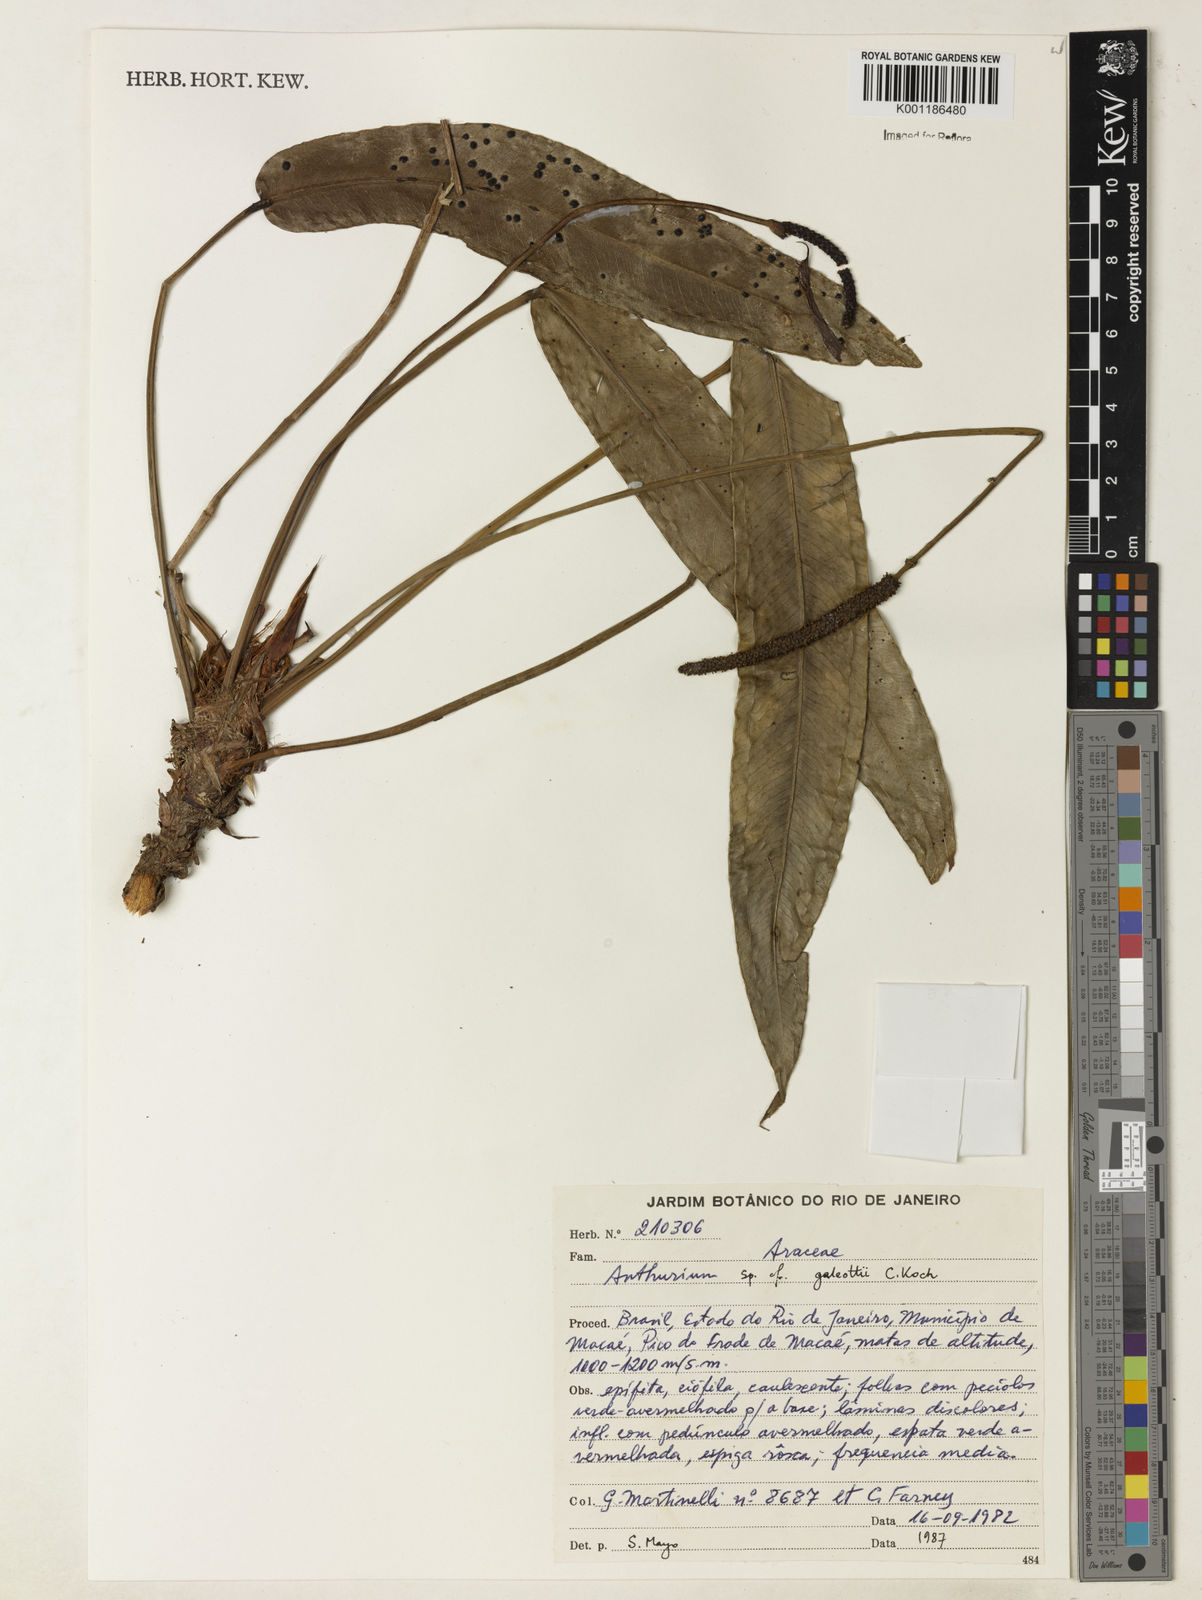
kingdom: Plantae
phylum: Tracheophyta
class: Liliopsida
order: Alismatales
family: Araceae
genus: Anthurium
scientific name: Anthurium galeottii
